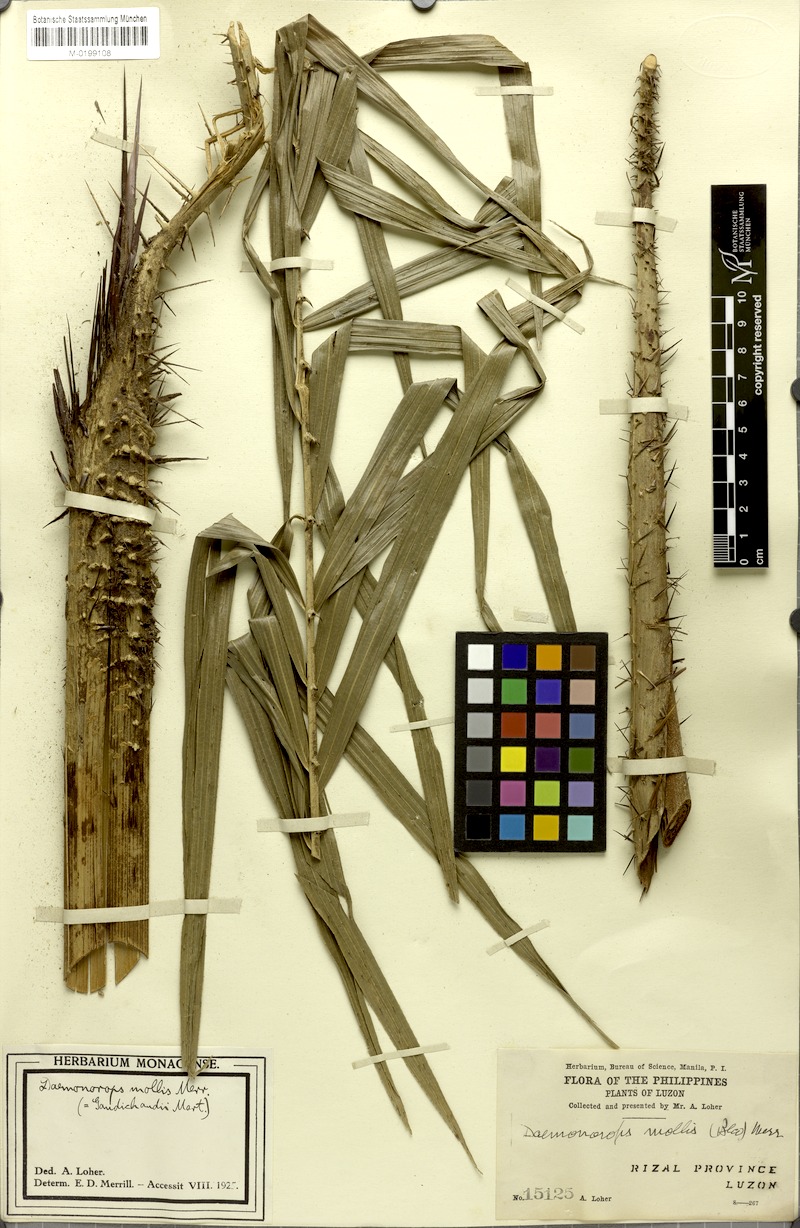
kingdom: Plantae
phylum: Tracheophyta
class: Liliopsida
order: Arecales
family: Arecaceae
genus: Calamus
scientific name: Calamus oblongus
